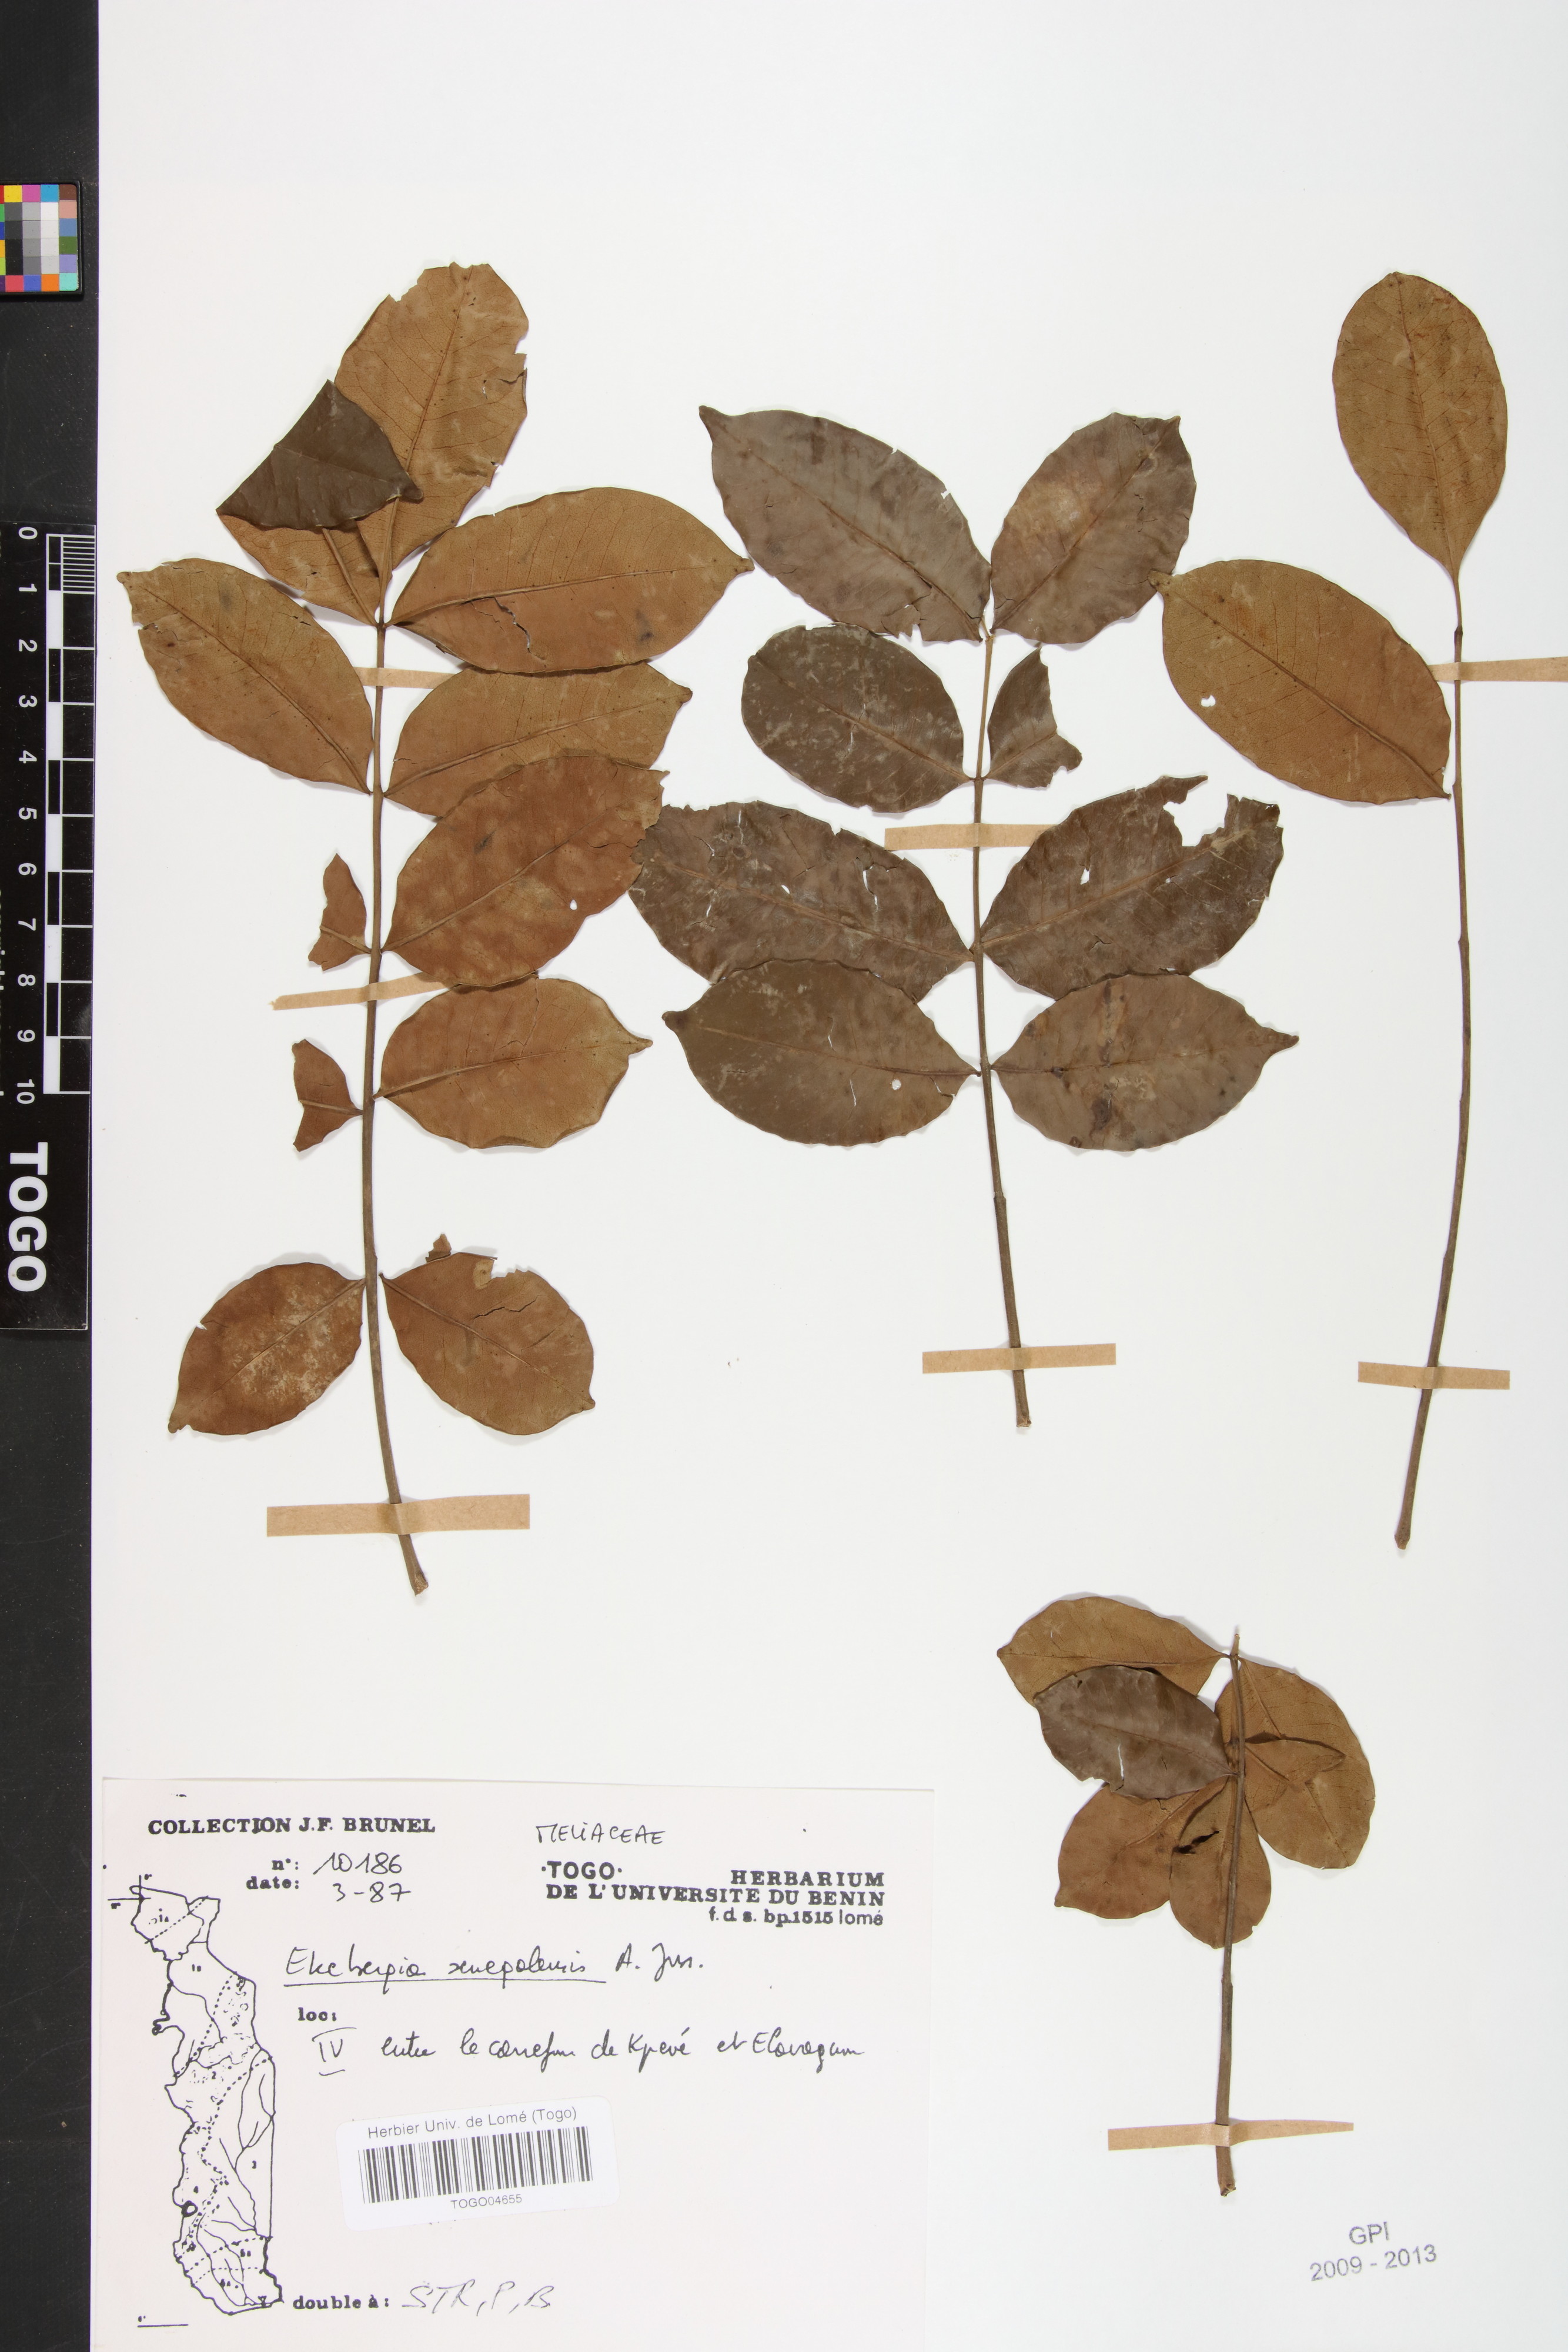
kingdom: Plantae
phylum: Tracheophyta
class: Magnoliopsida
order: Sapindales
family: Meliaceae
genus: Ekebergia
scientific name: Ekebergia capensis
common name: Cape-ash
